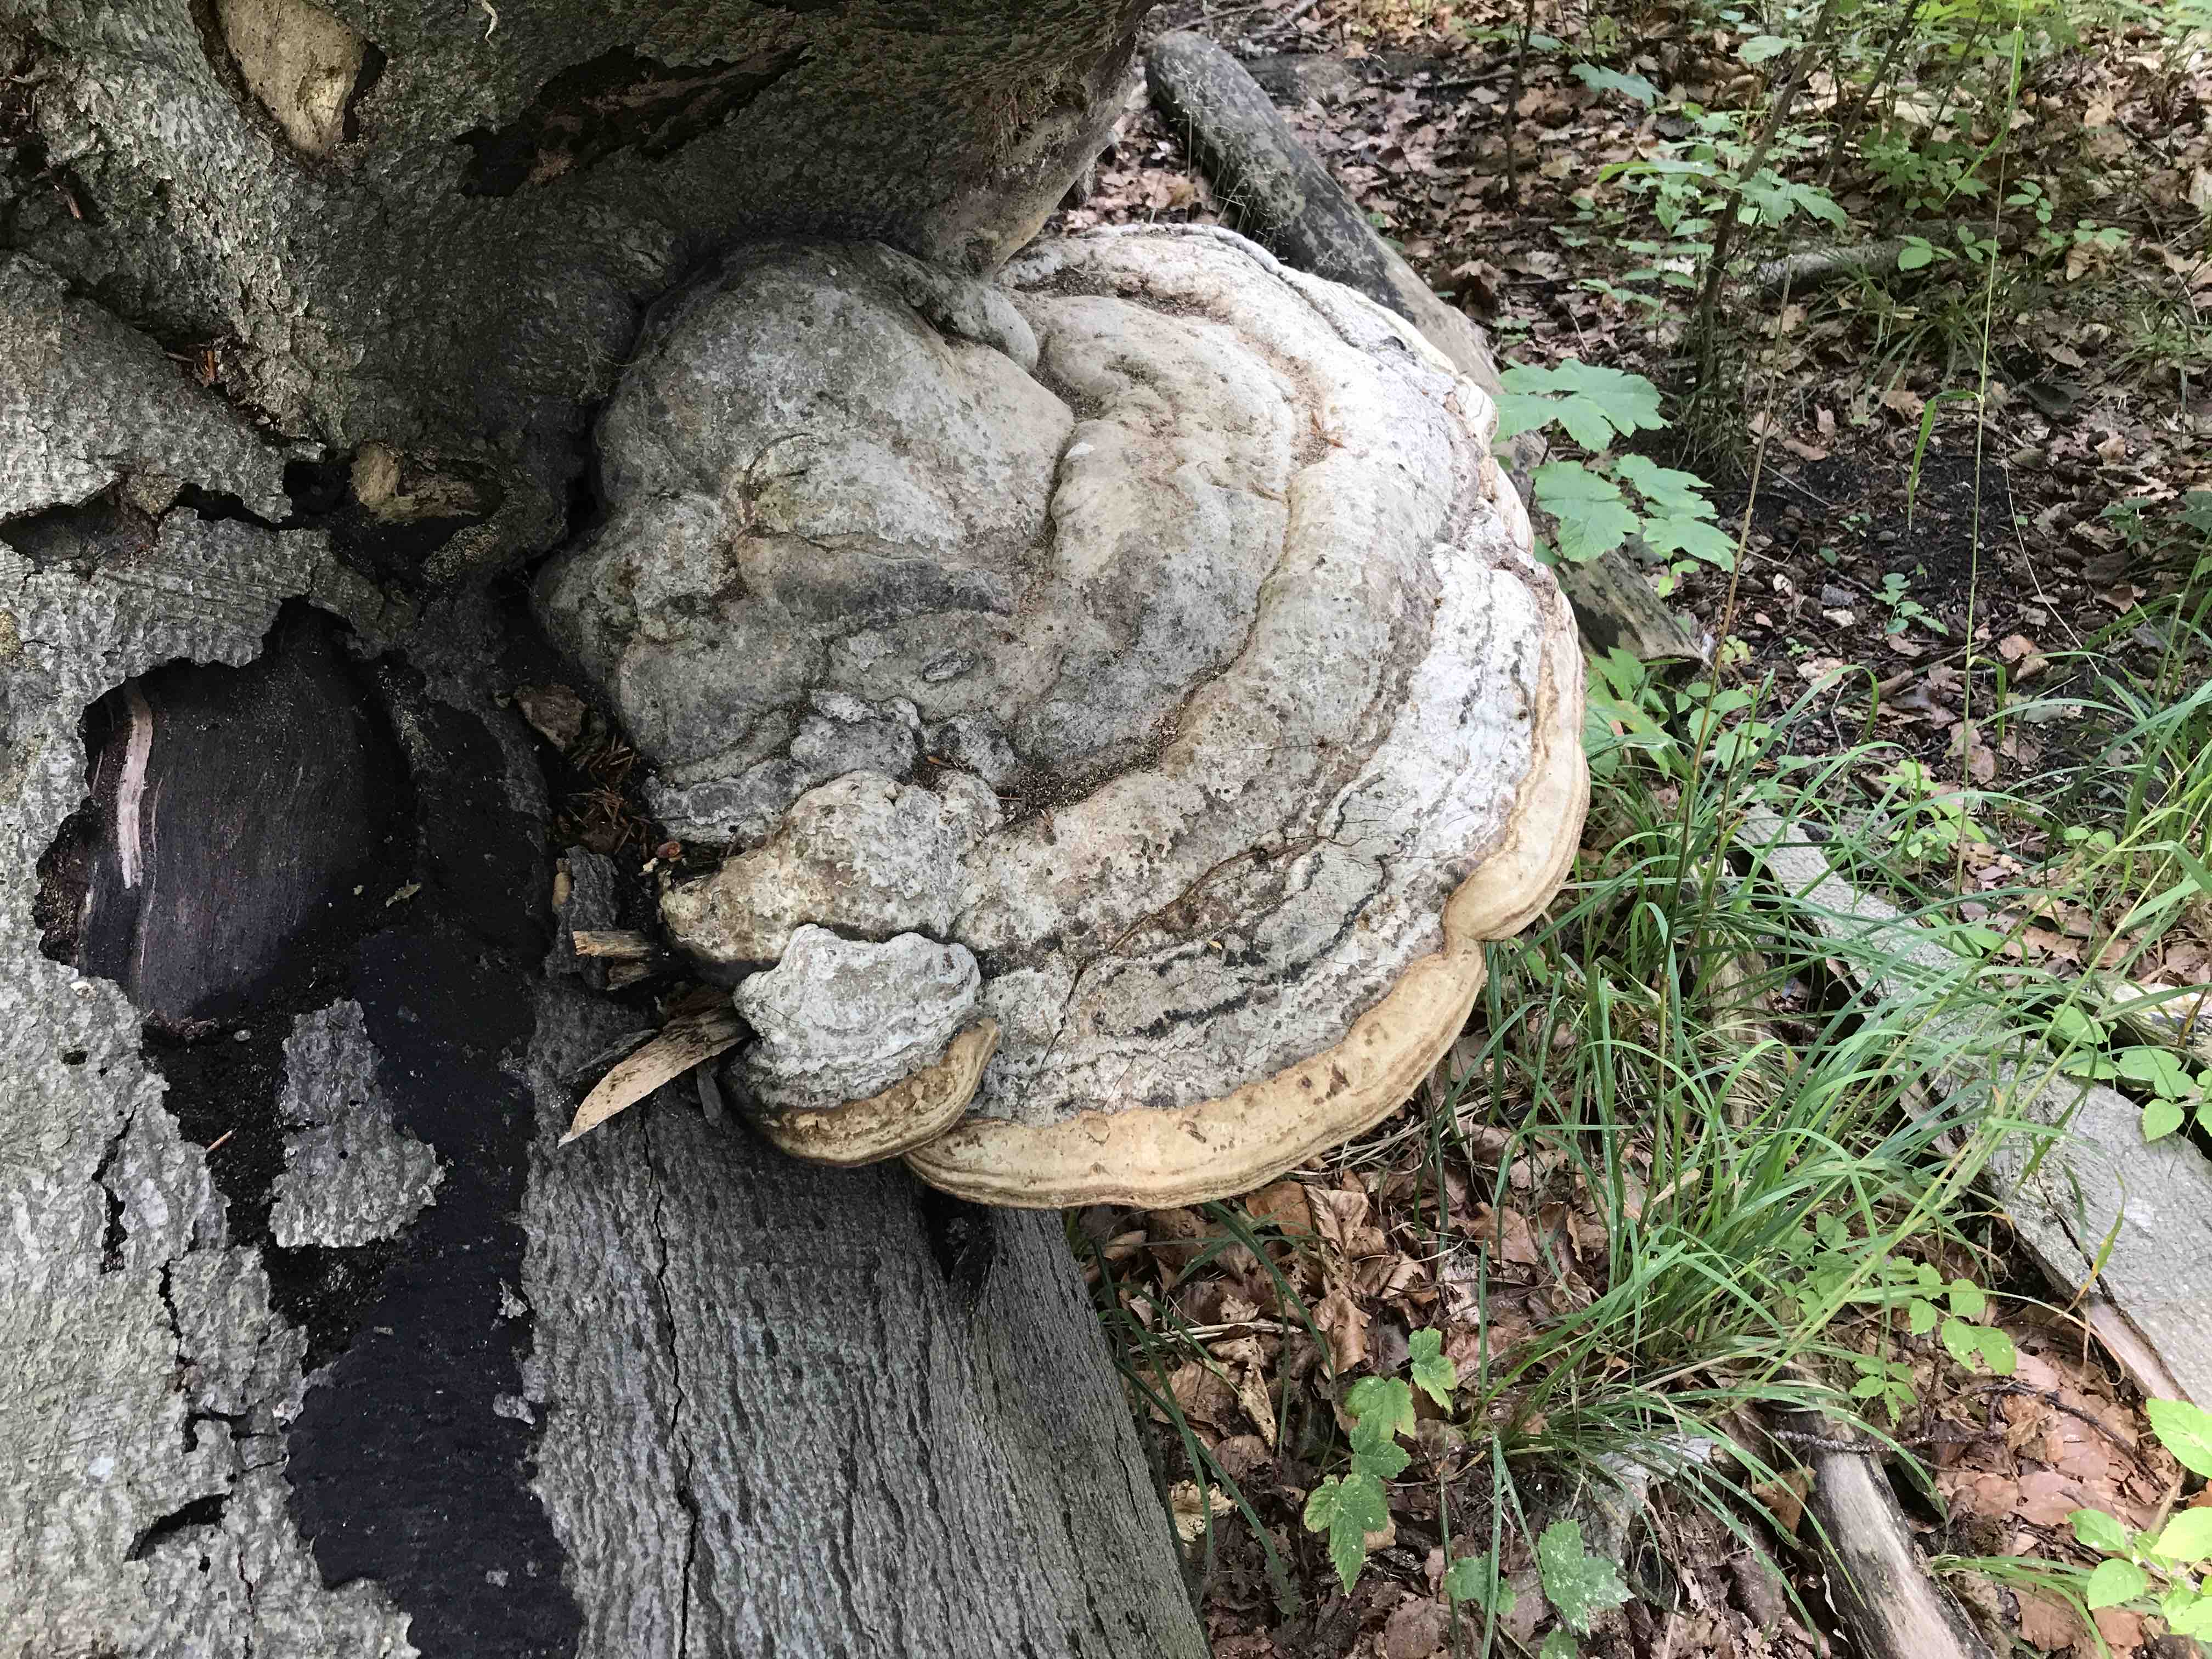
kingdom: Fungi
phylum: Basidiomycota
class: Agaricomycetes
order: Polyporales
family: Polyporaceae
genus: Fomes
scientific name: Fomes fomentarius
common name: tøndersvamp
